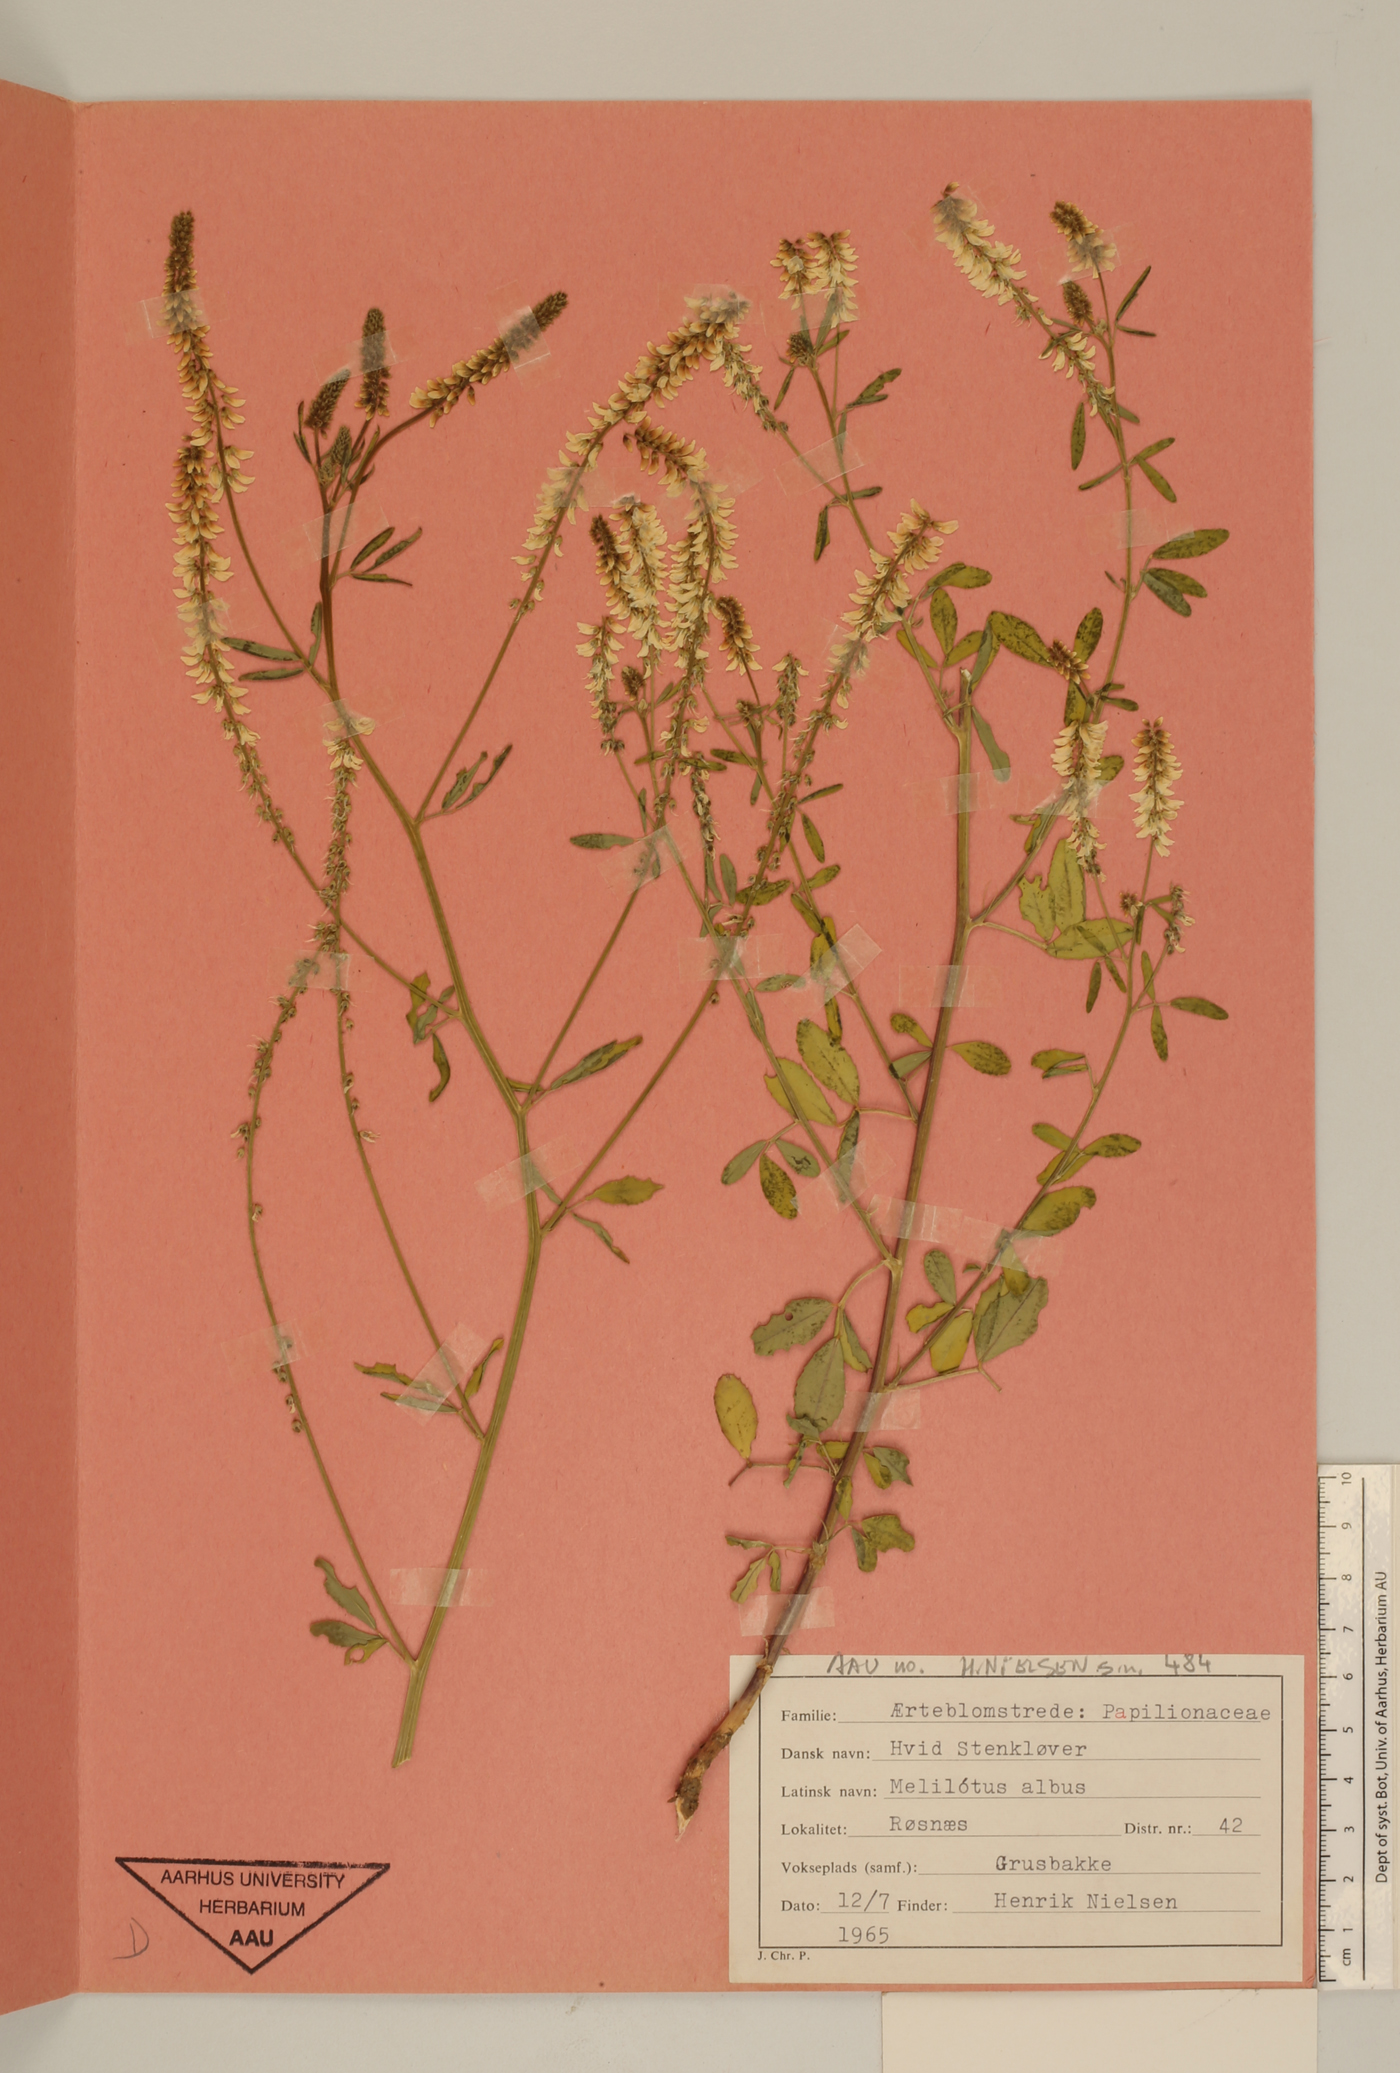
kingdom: Plantae
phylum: Tracheophyta
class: Magnoliopsida
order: Fabales
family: Fabaceae
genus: Melilotus
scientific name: Melilotus albus
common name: White melilot
